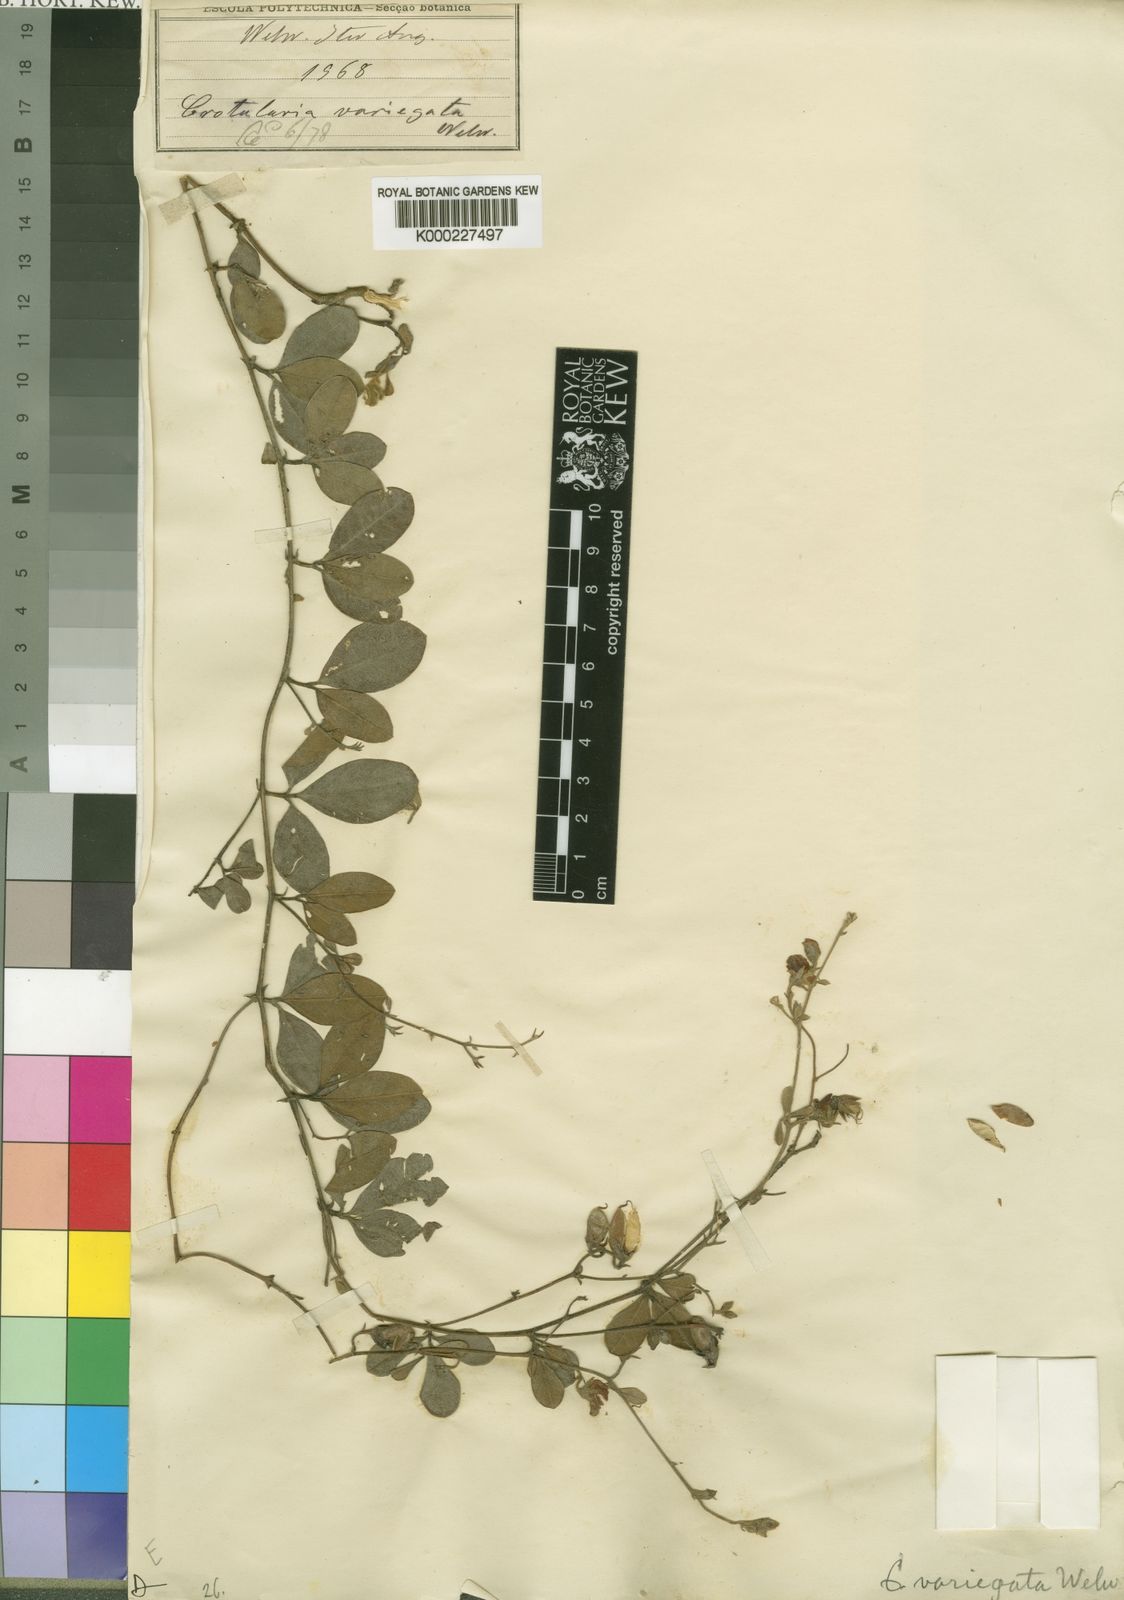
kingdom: Plantae
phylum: Tracheophyta
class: Magnoliopsida
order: Fabales
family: Fabaceae
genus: Crotalaria
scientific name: Crotalaria thaumasiophylla
